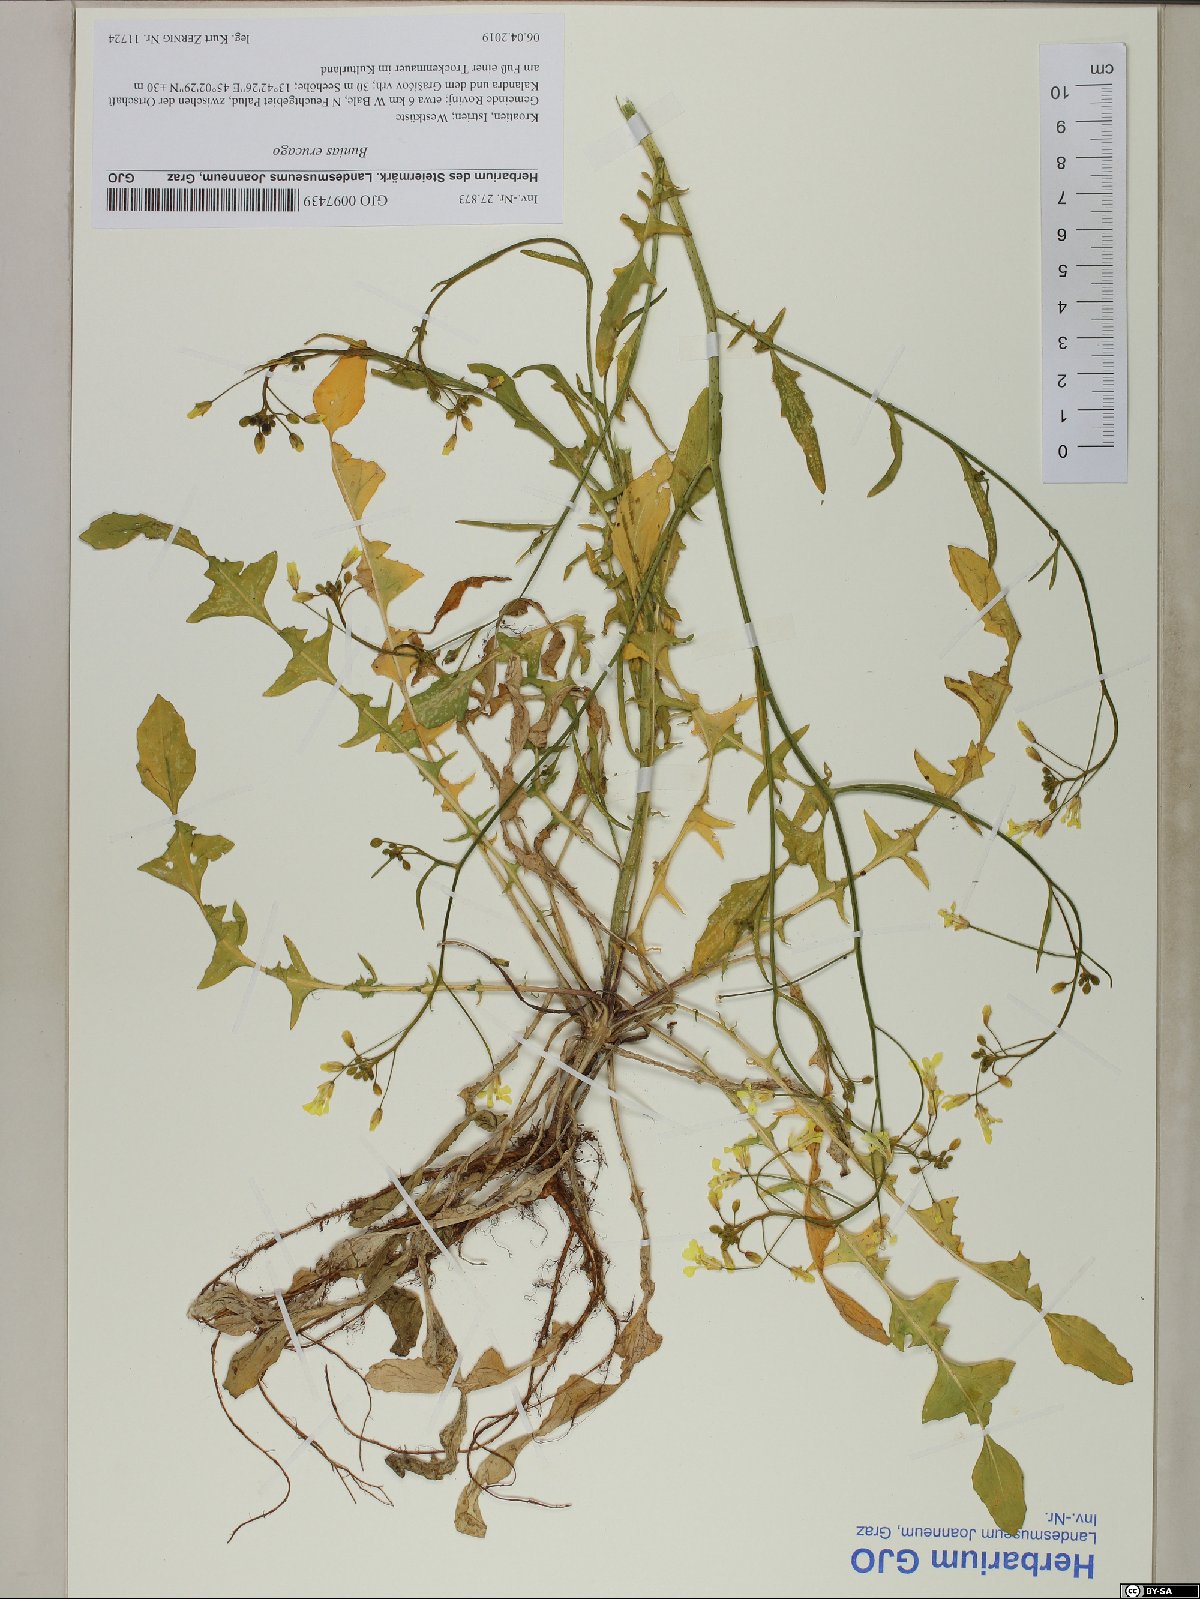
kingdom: Plantae
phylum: Tracheophyta
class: Magnoliopsida
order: Brassicales
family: Brassicaceae
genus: Bunias
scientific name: Bunias erucago
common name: Southern warty-cabbage
